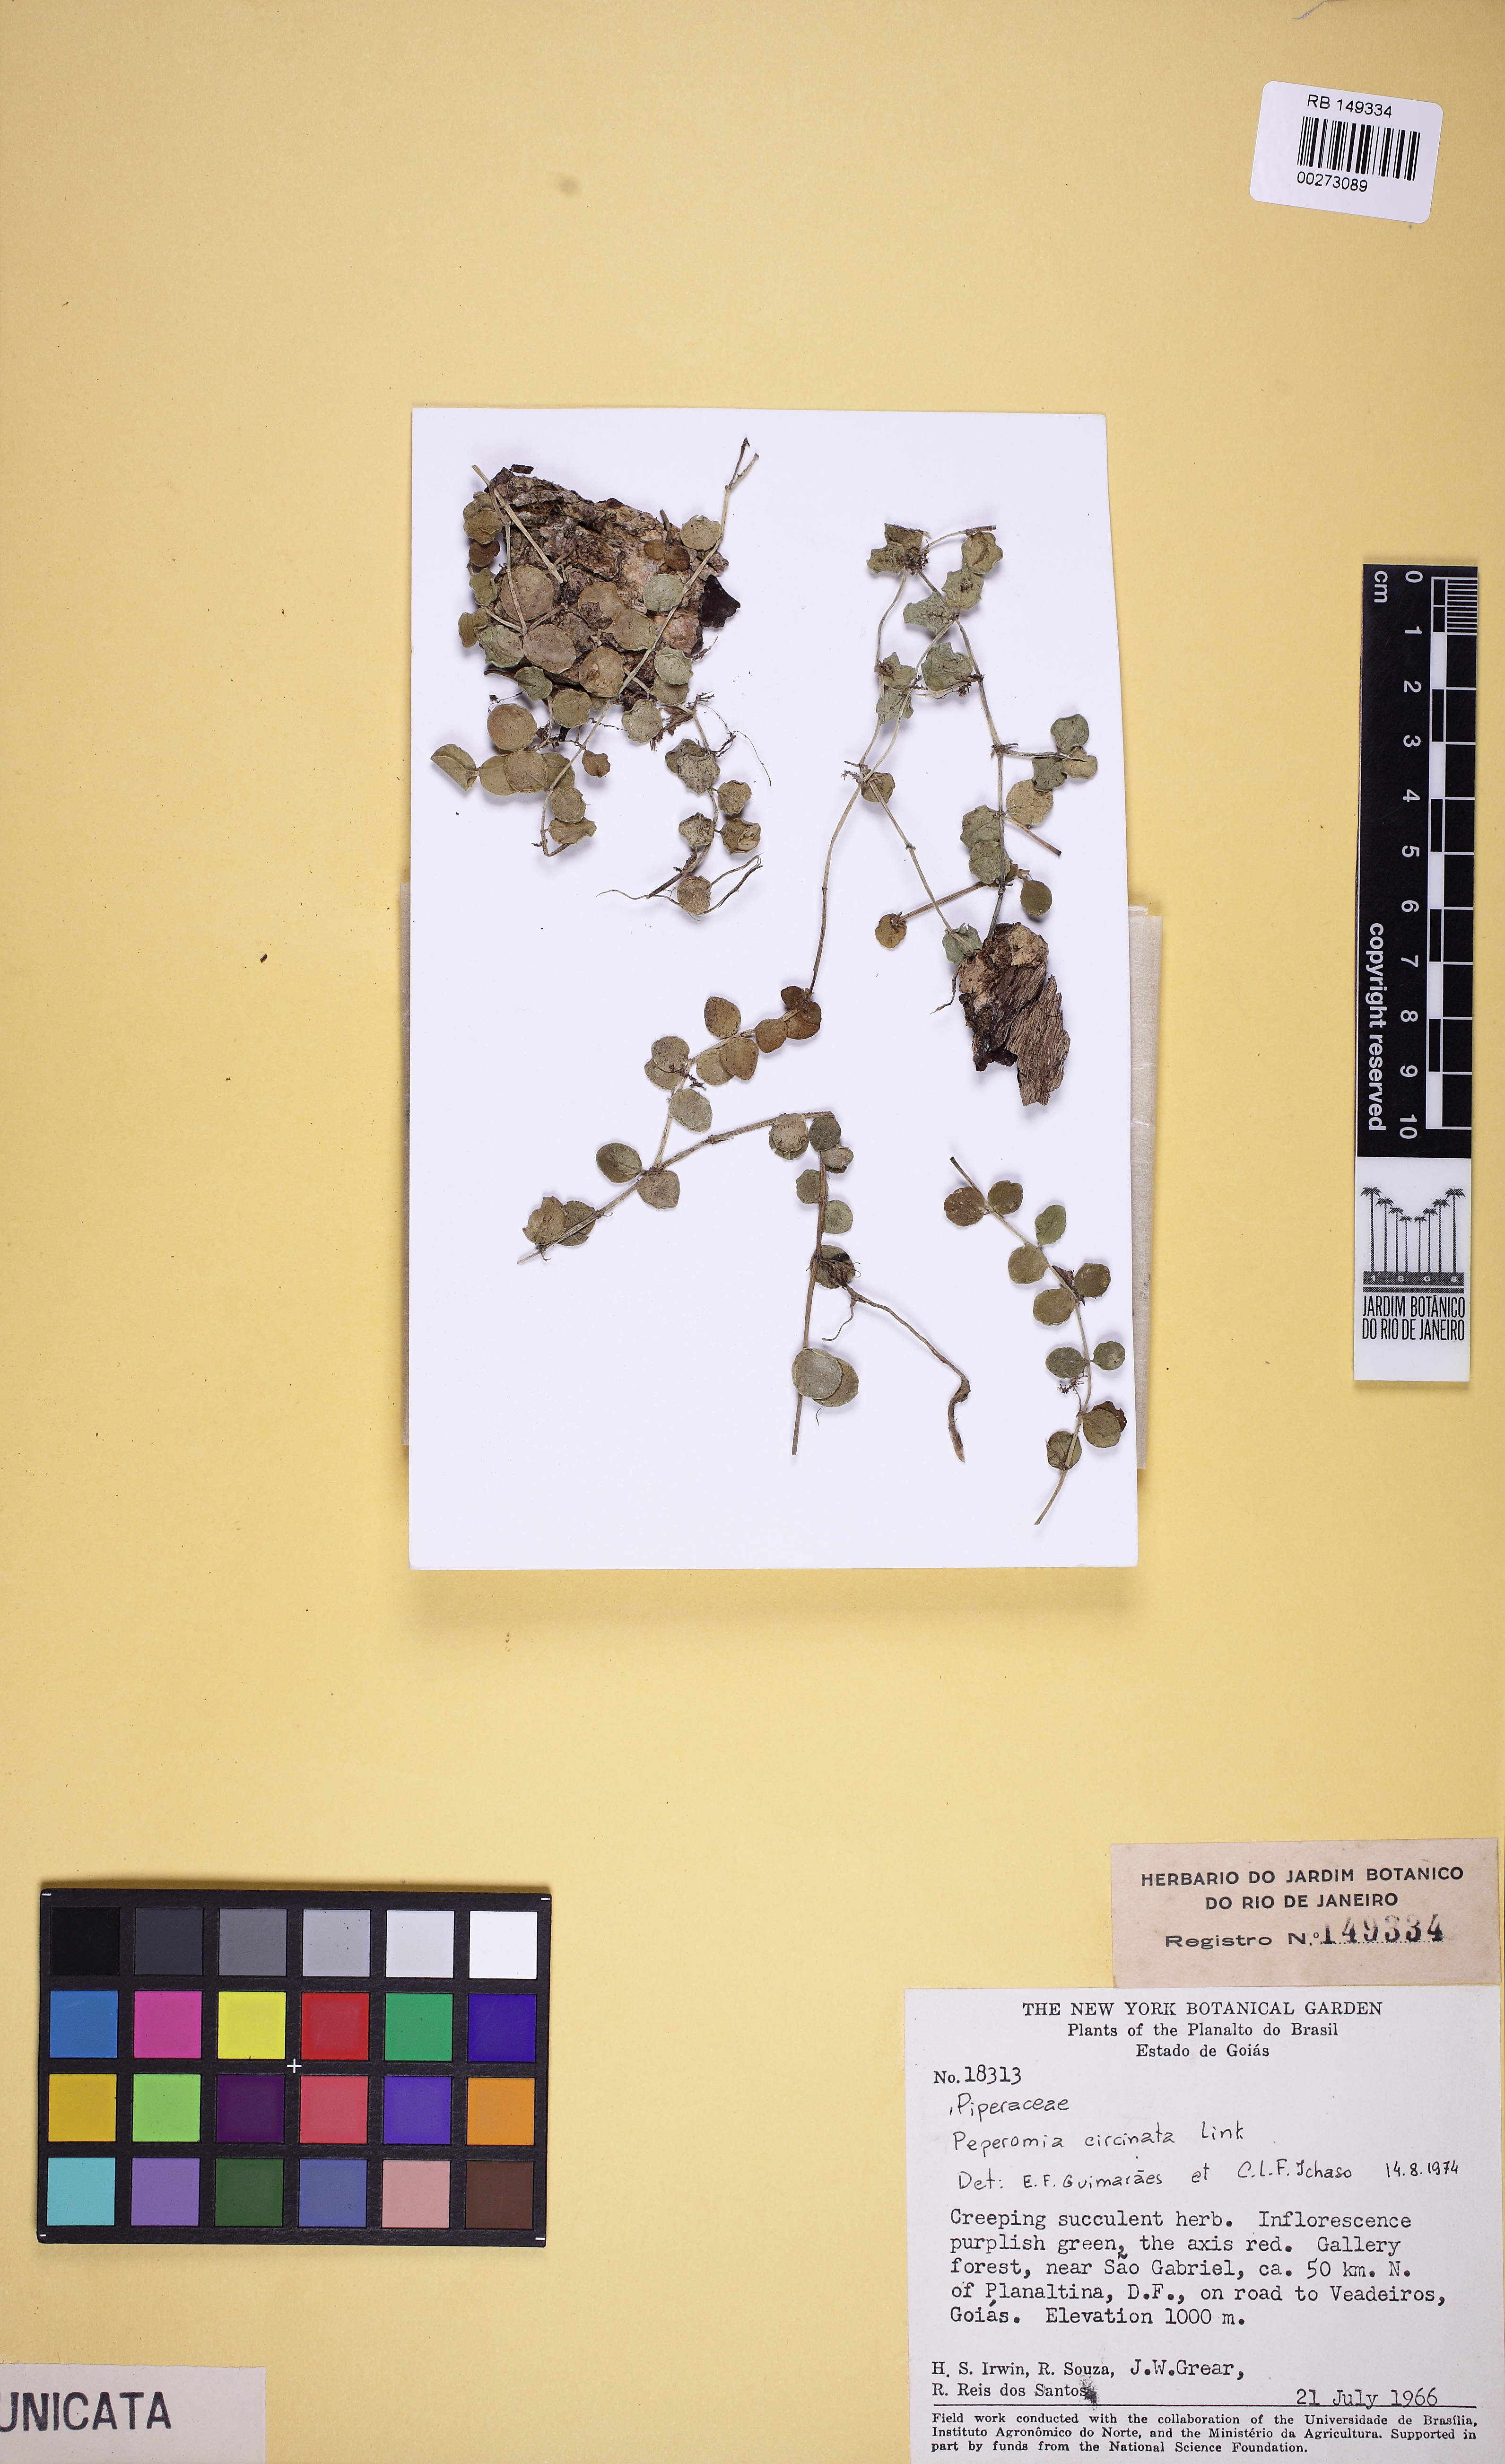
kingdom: Plantae
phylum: Tracheophyta
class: Magnoliopsida
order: Piperales
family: Piperaceae
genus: Peperomia
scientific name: Peperomia circinnata
